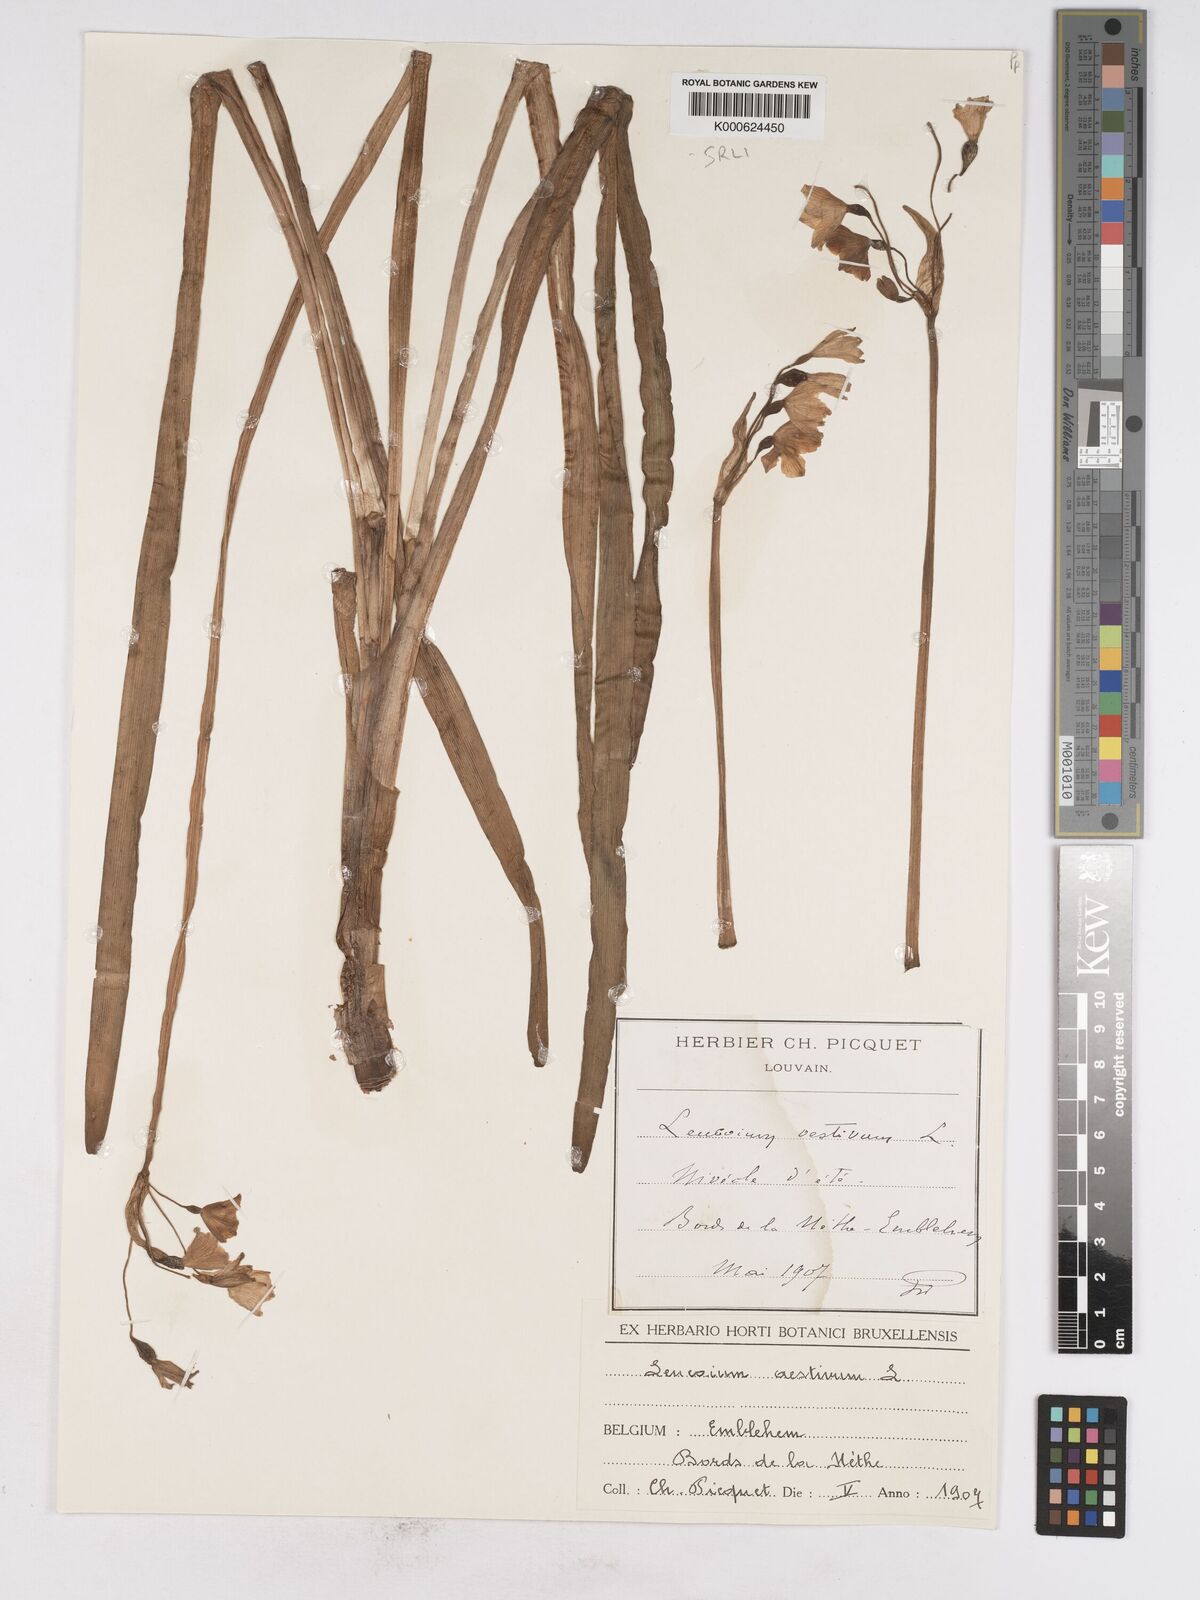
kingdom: Plantae
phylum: Tracheophyta
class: Liliopsida
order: Asparagales
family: Amaryllidaceae
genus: Leucojum
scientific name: Leucojum aestivum
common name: Summer snowflake
